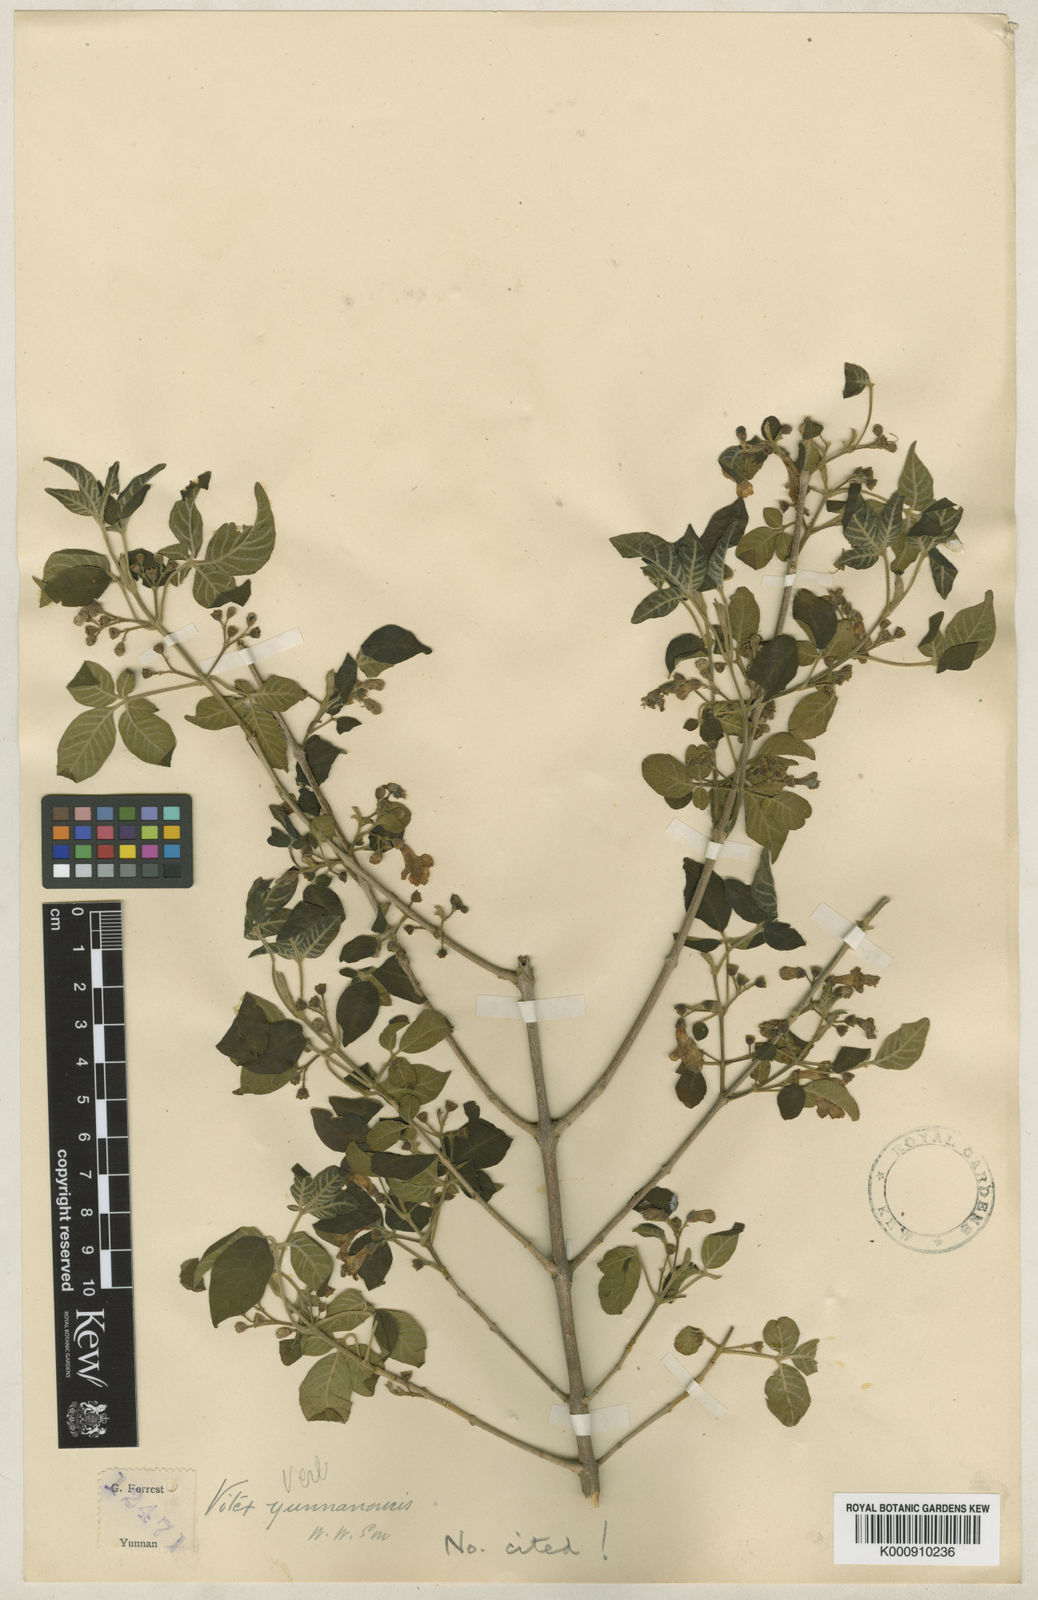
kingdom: Plantae
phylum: Tracheophyta
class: Magnoliopsida
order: Lamiales
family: Lamiaceae
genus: Vitex
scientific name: Vitex yunnanensis
